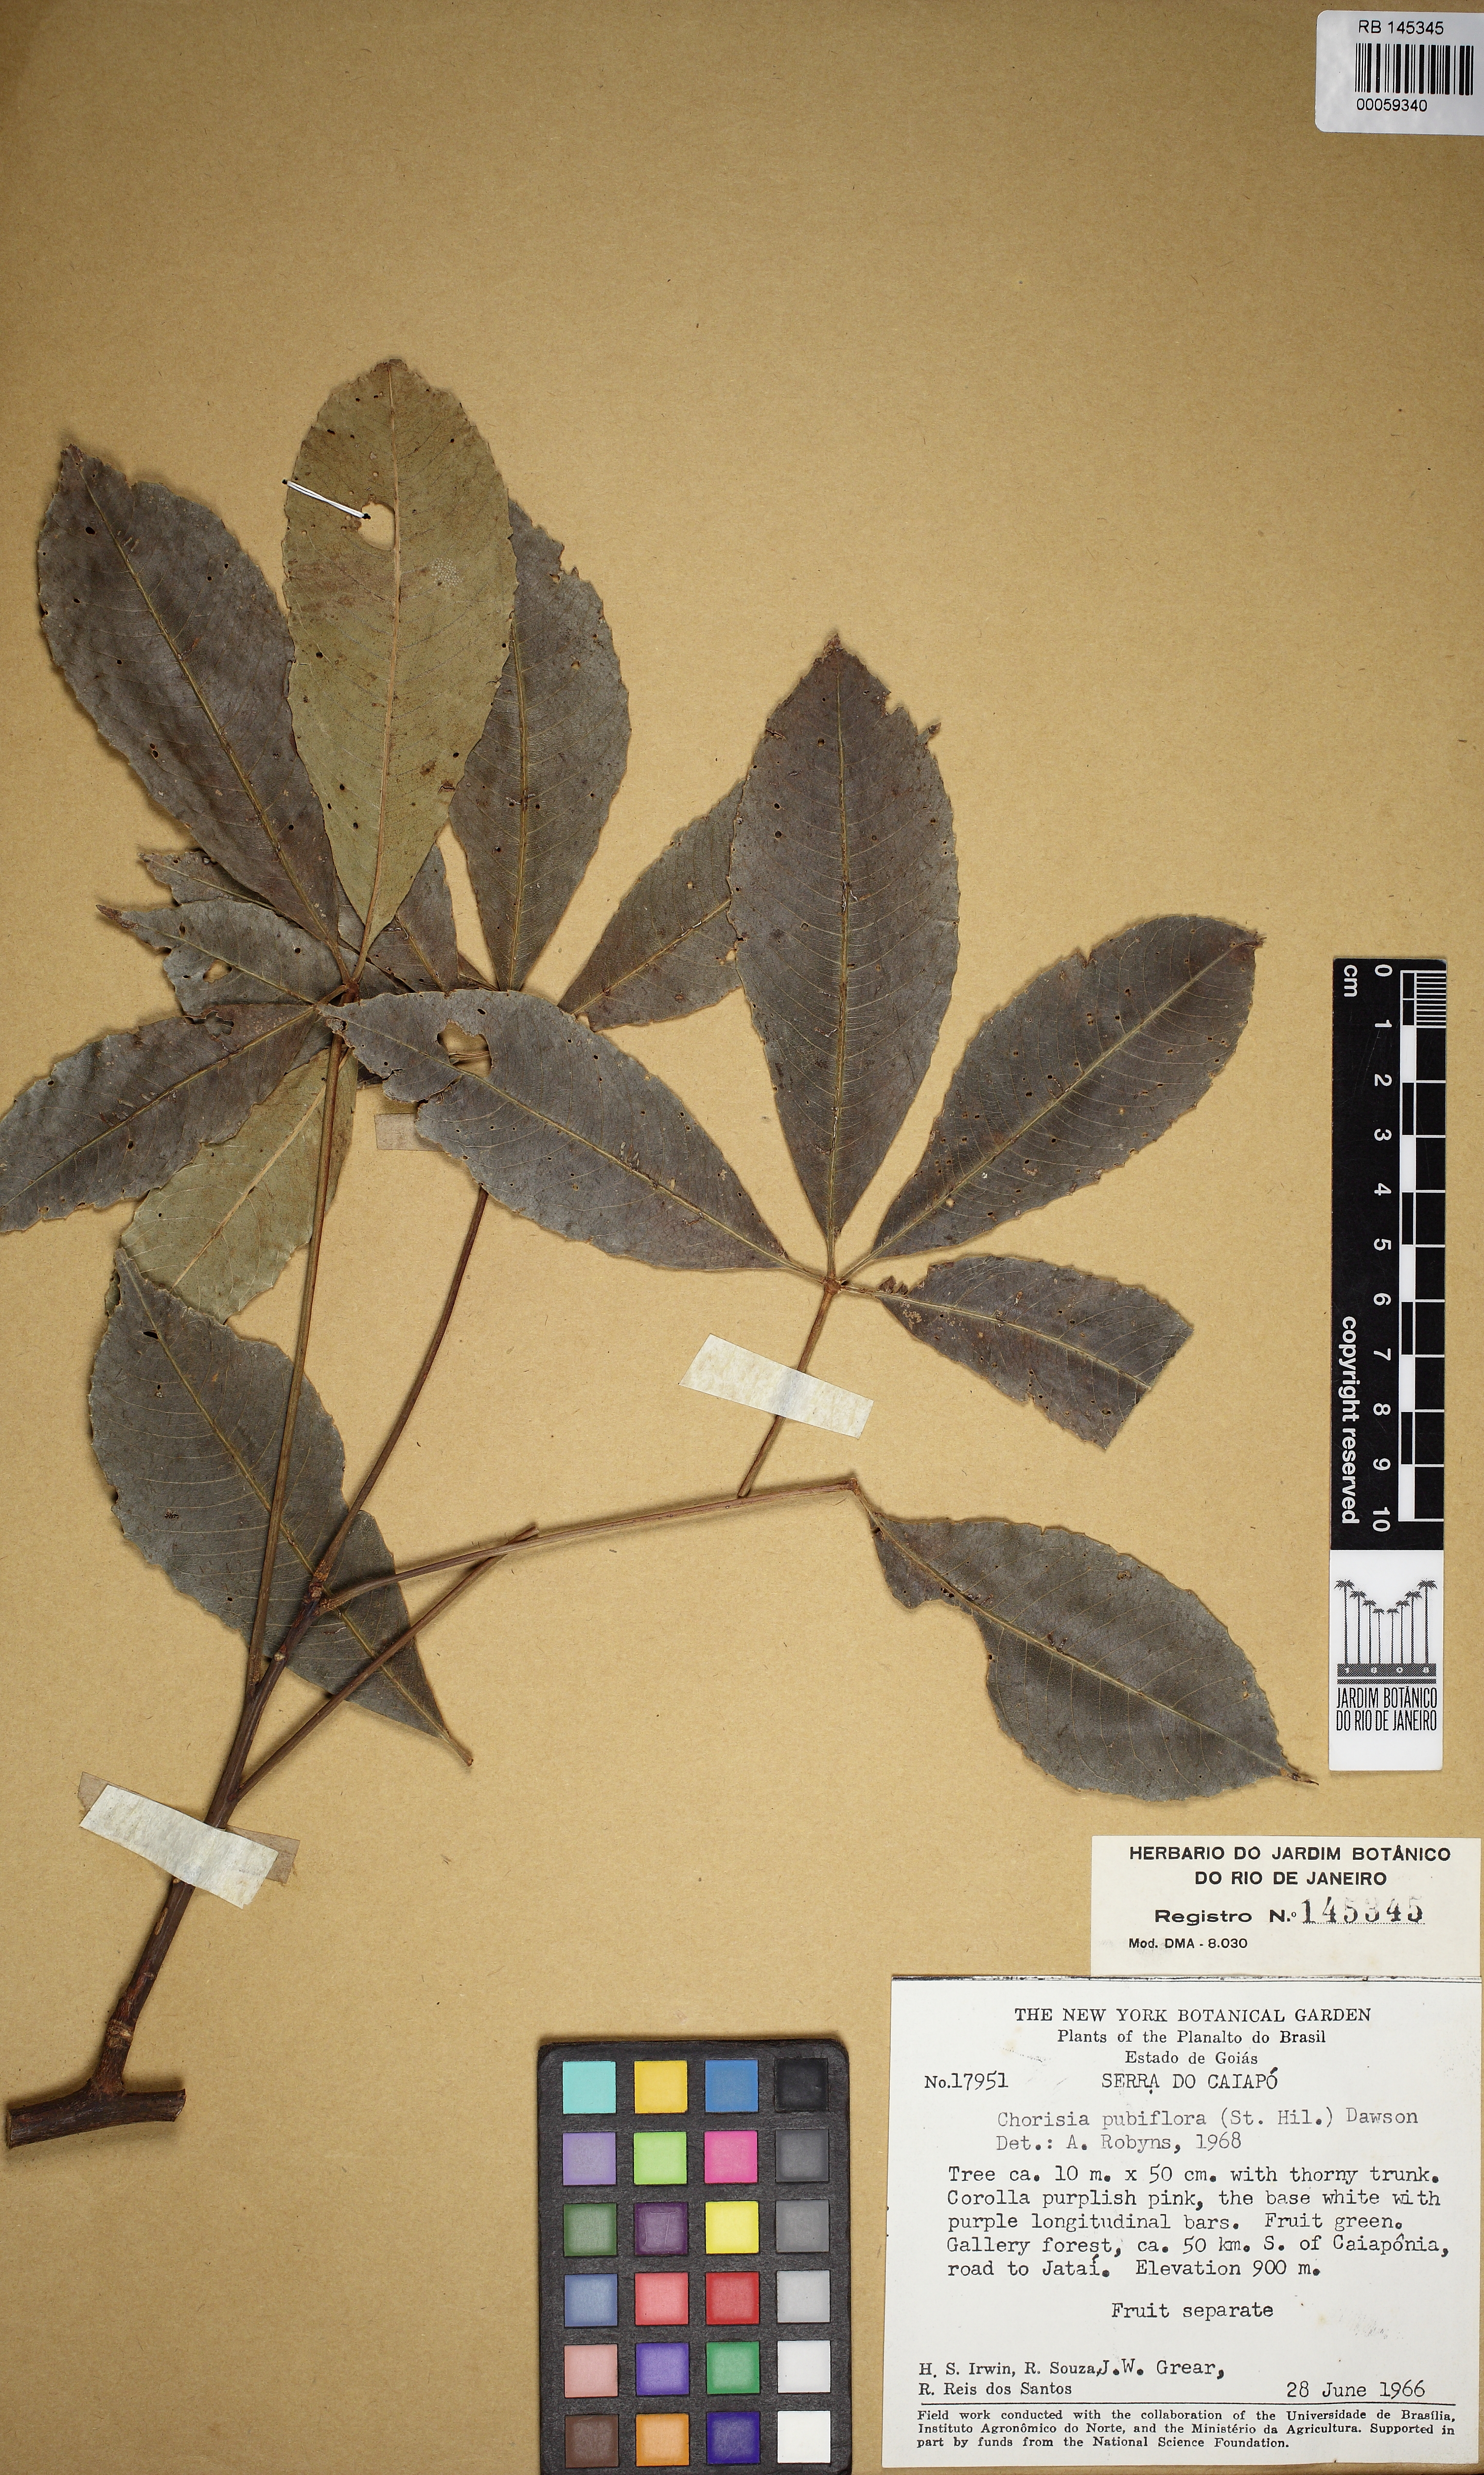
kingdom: Plantae
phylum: Tracheophyta
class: Magnoliopsida
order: Malvales
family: Malvaceae
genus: Ceiba
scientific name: Ceiba speciosa
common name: Silk-floss tree
